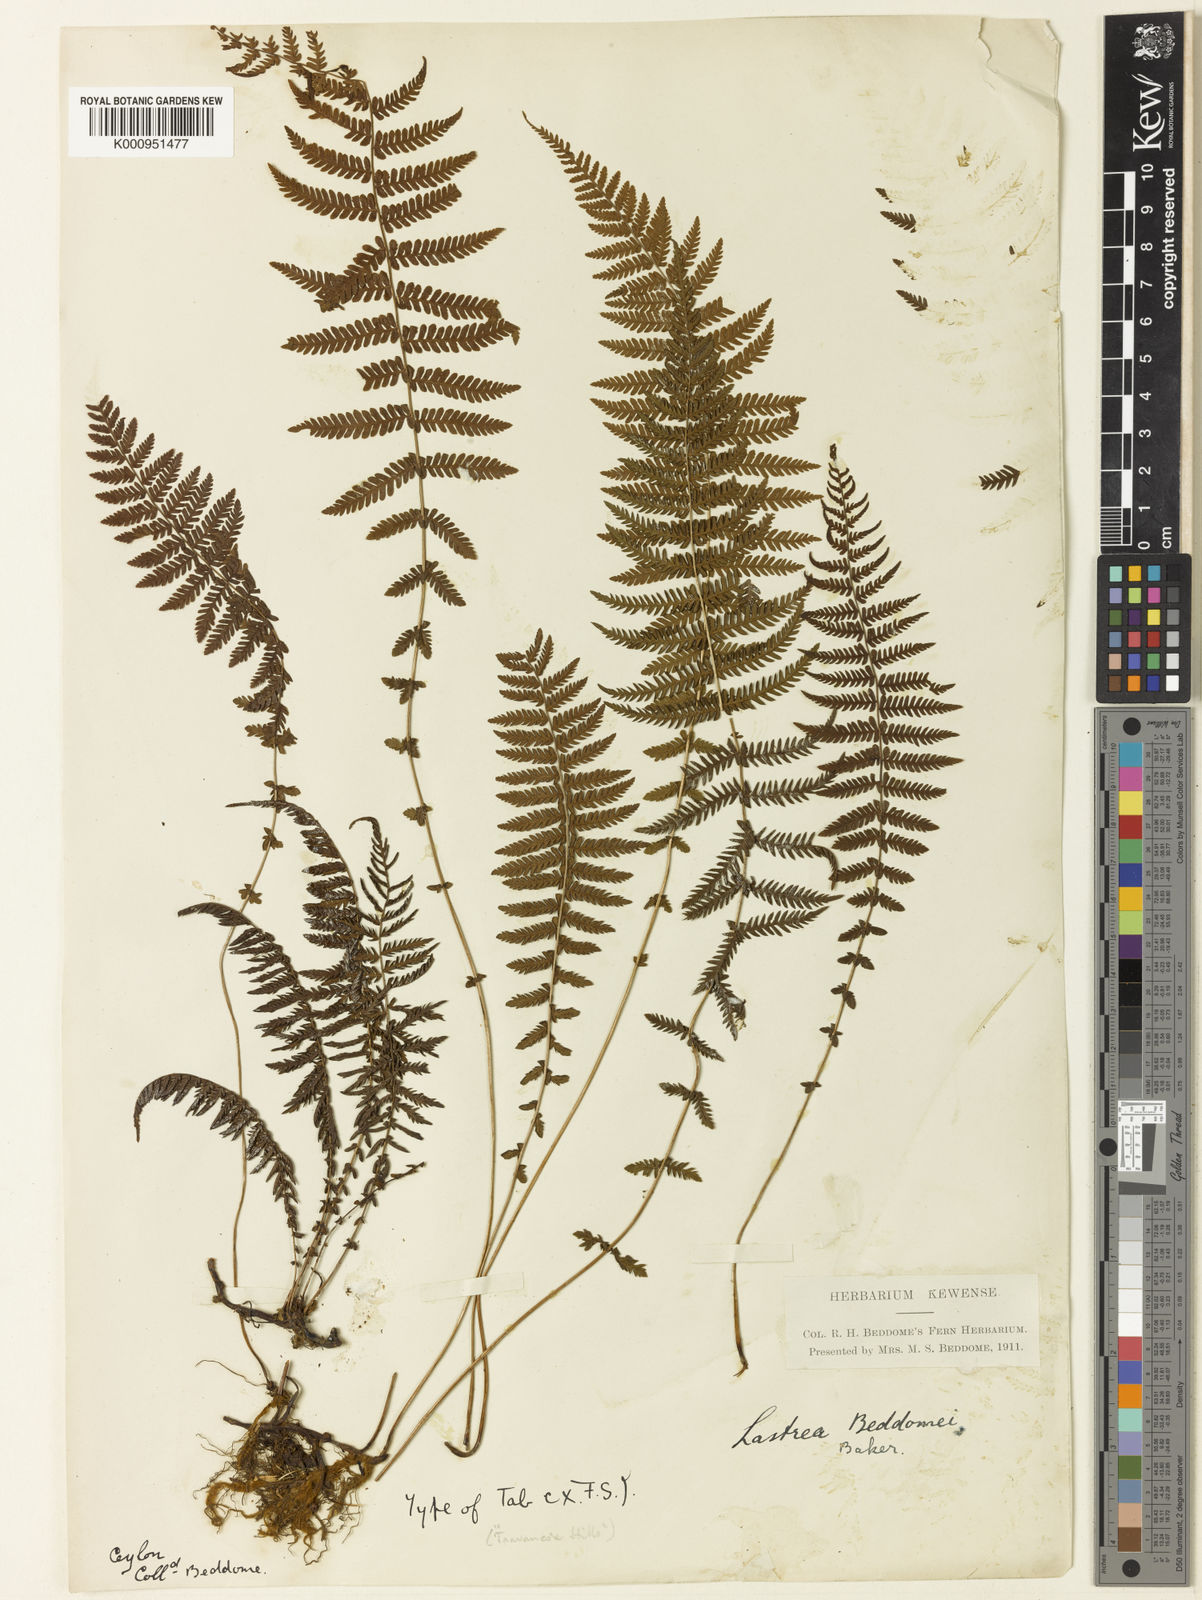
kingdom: Plantae
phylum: Tracheophyta
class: Polypodiopsida
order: Polypodiales
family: Thelypteridaceae
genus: Amauropelta
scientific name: Amauropelta beddomei
